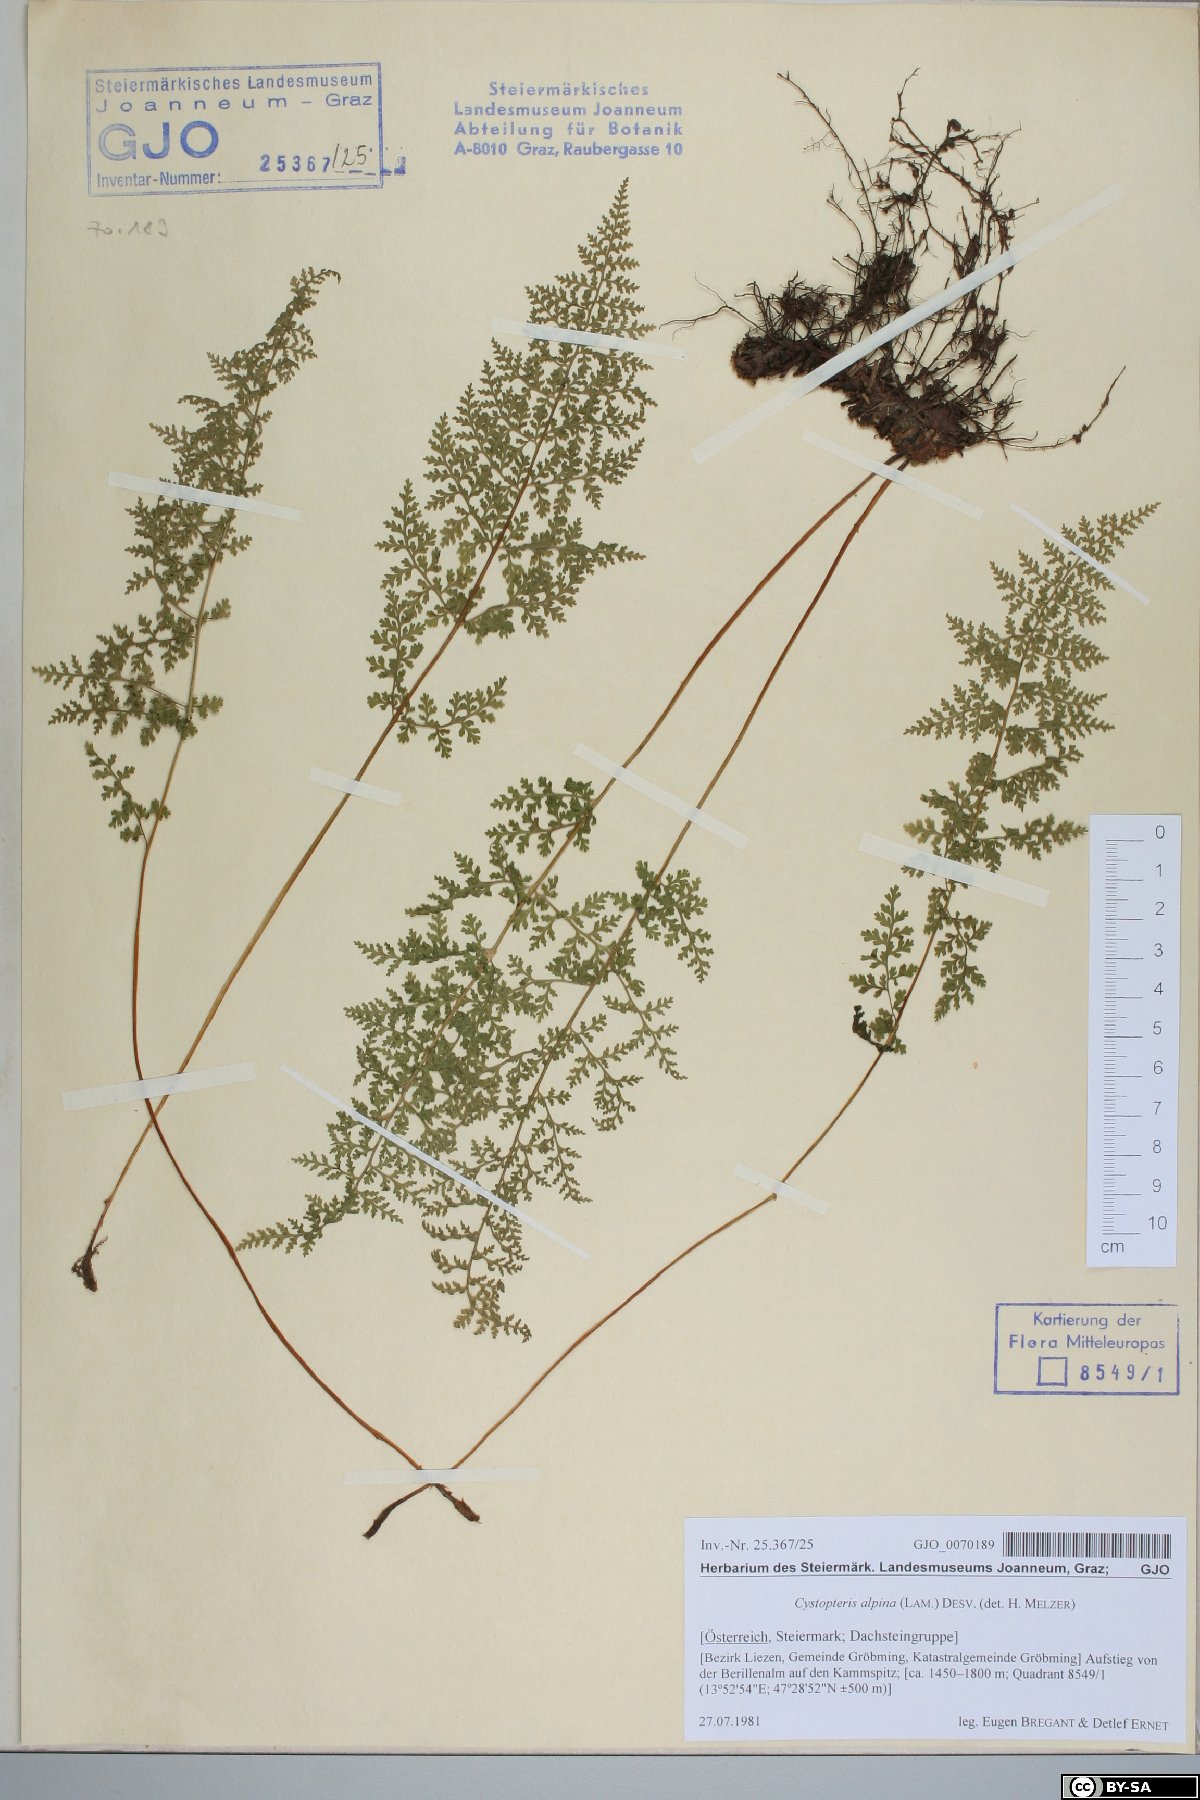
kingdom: Plantae
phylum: Tracheophyta
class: Polypodiopsida
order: Polypodiales
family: Cystopteridaceae
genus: Cystopteris
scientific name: Cystopteris alpina
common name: Alpine bladder-fern
